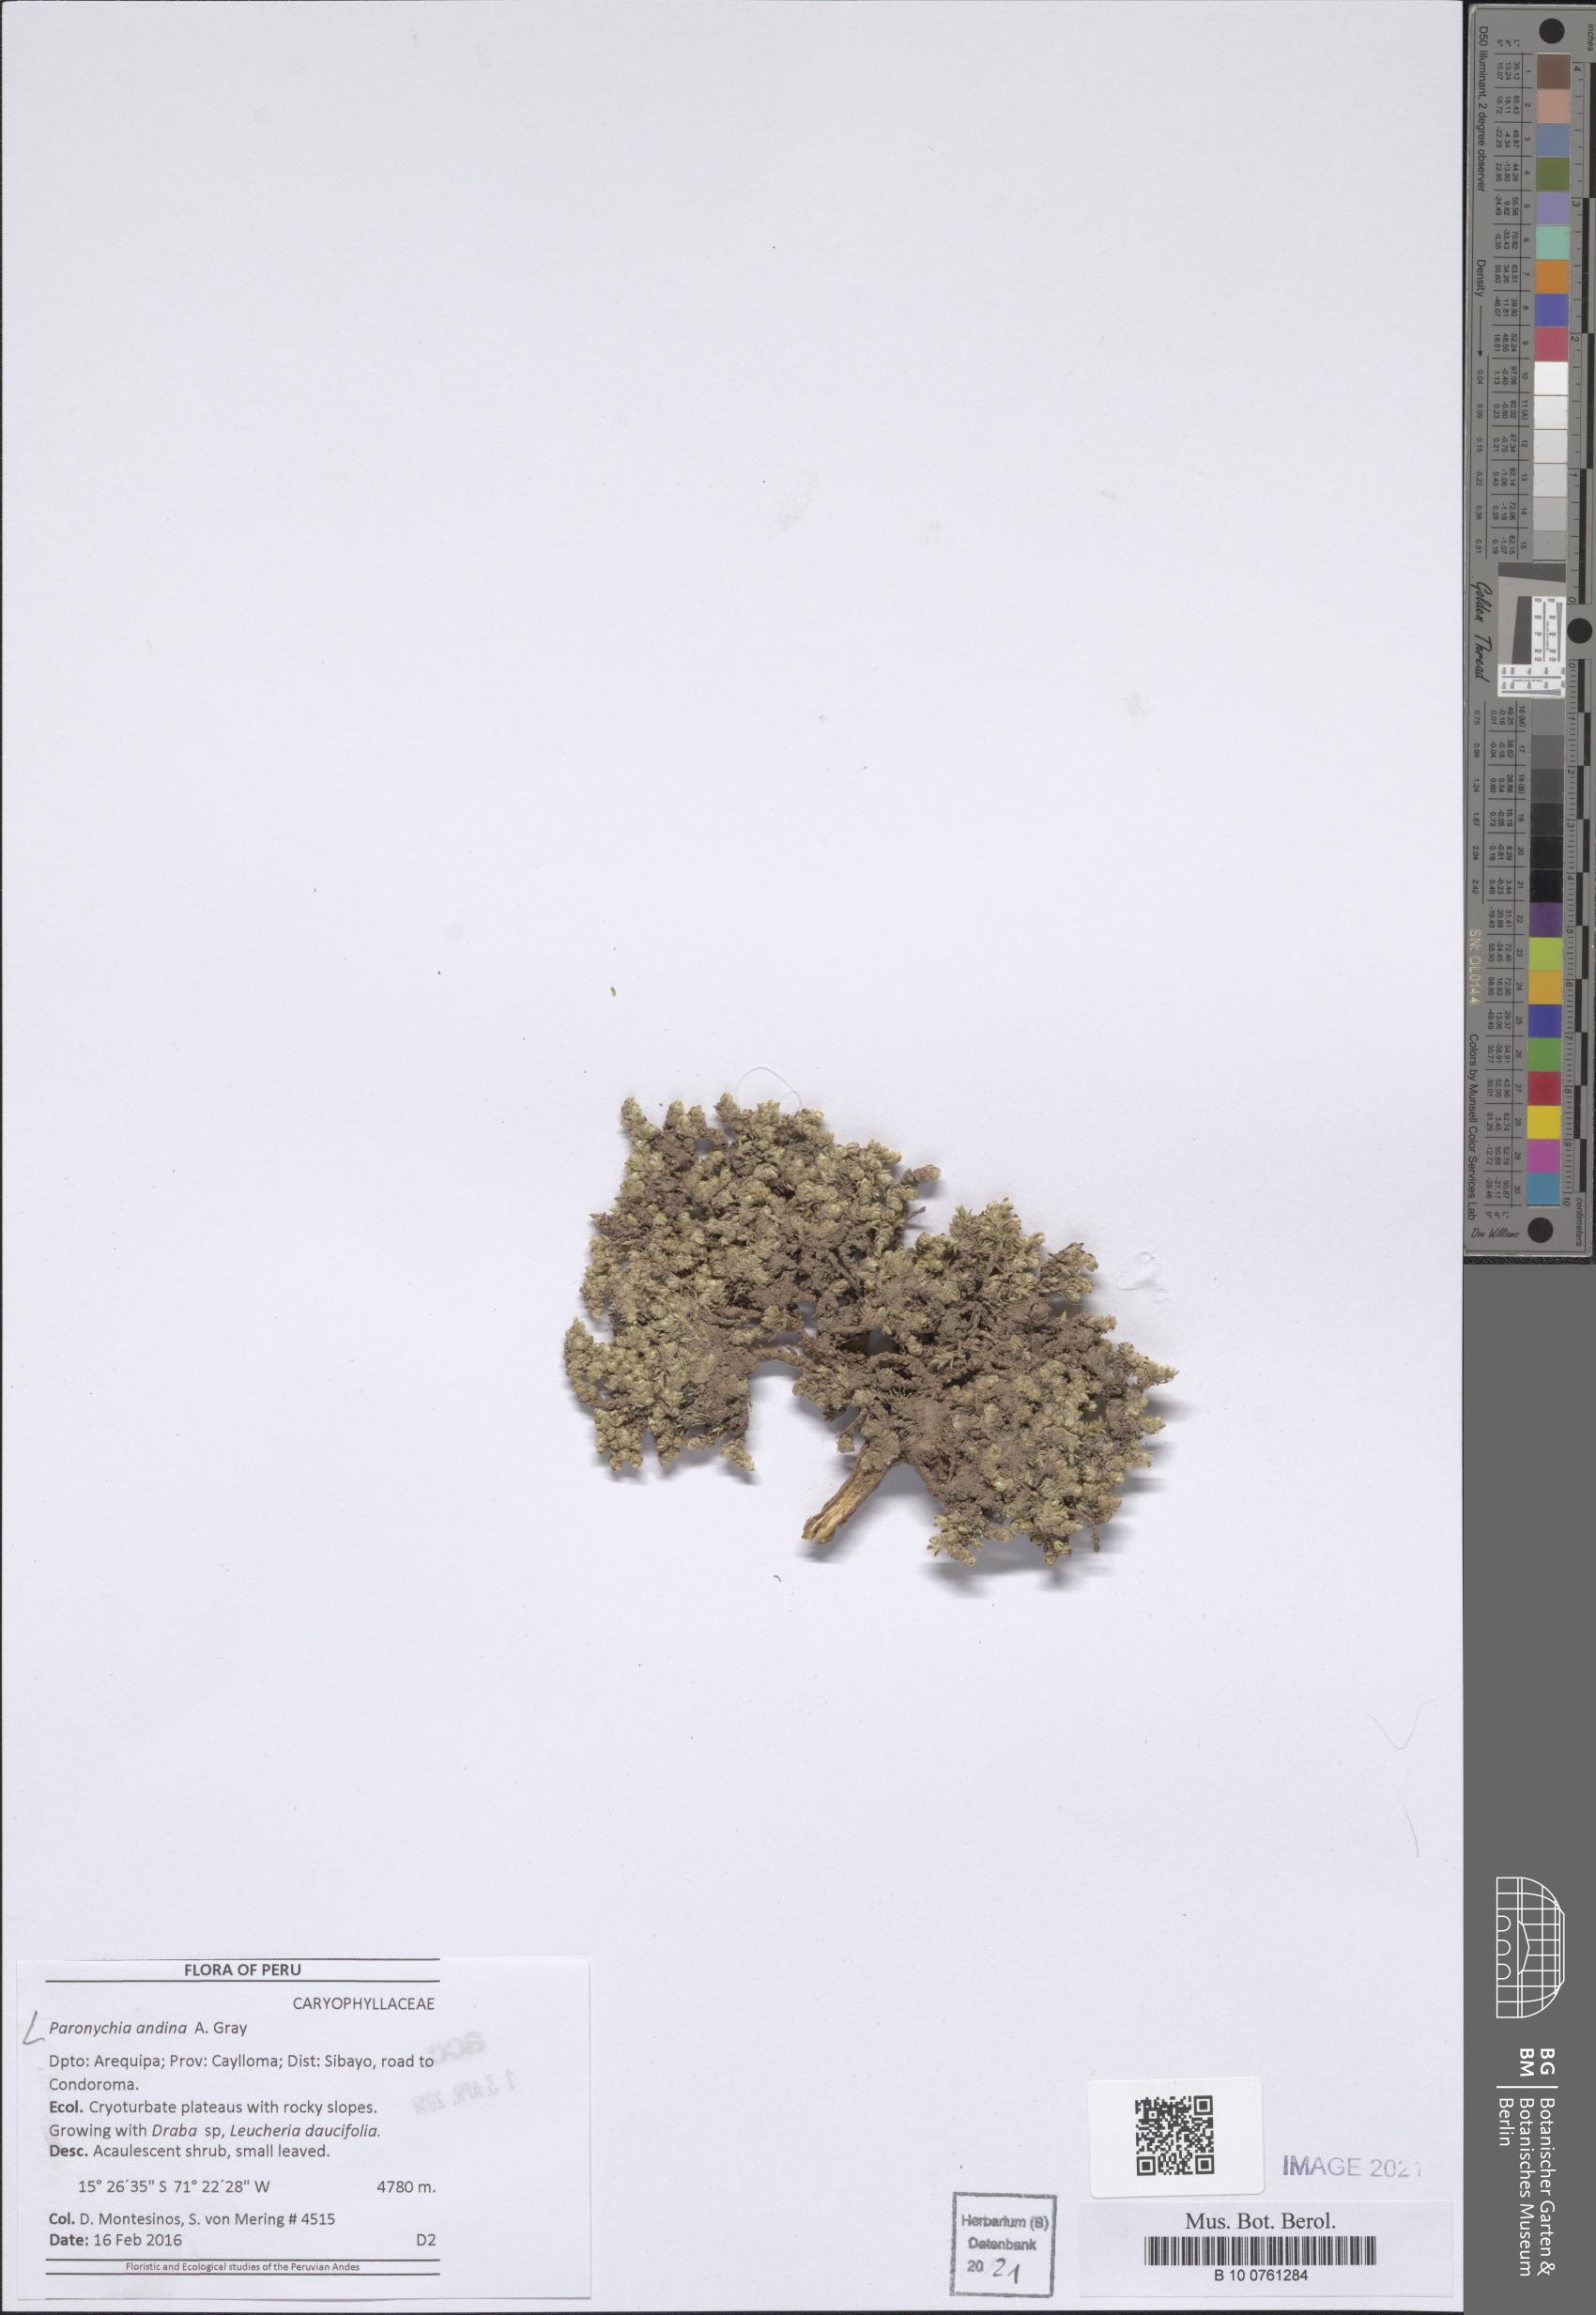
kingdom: Plantae
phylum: Tracheophyta
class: Magnoliopsida
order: Caryophyllales
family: Caryophyllaceae
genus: Paronychia
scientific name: Paronychia
